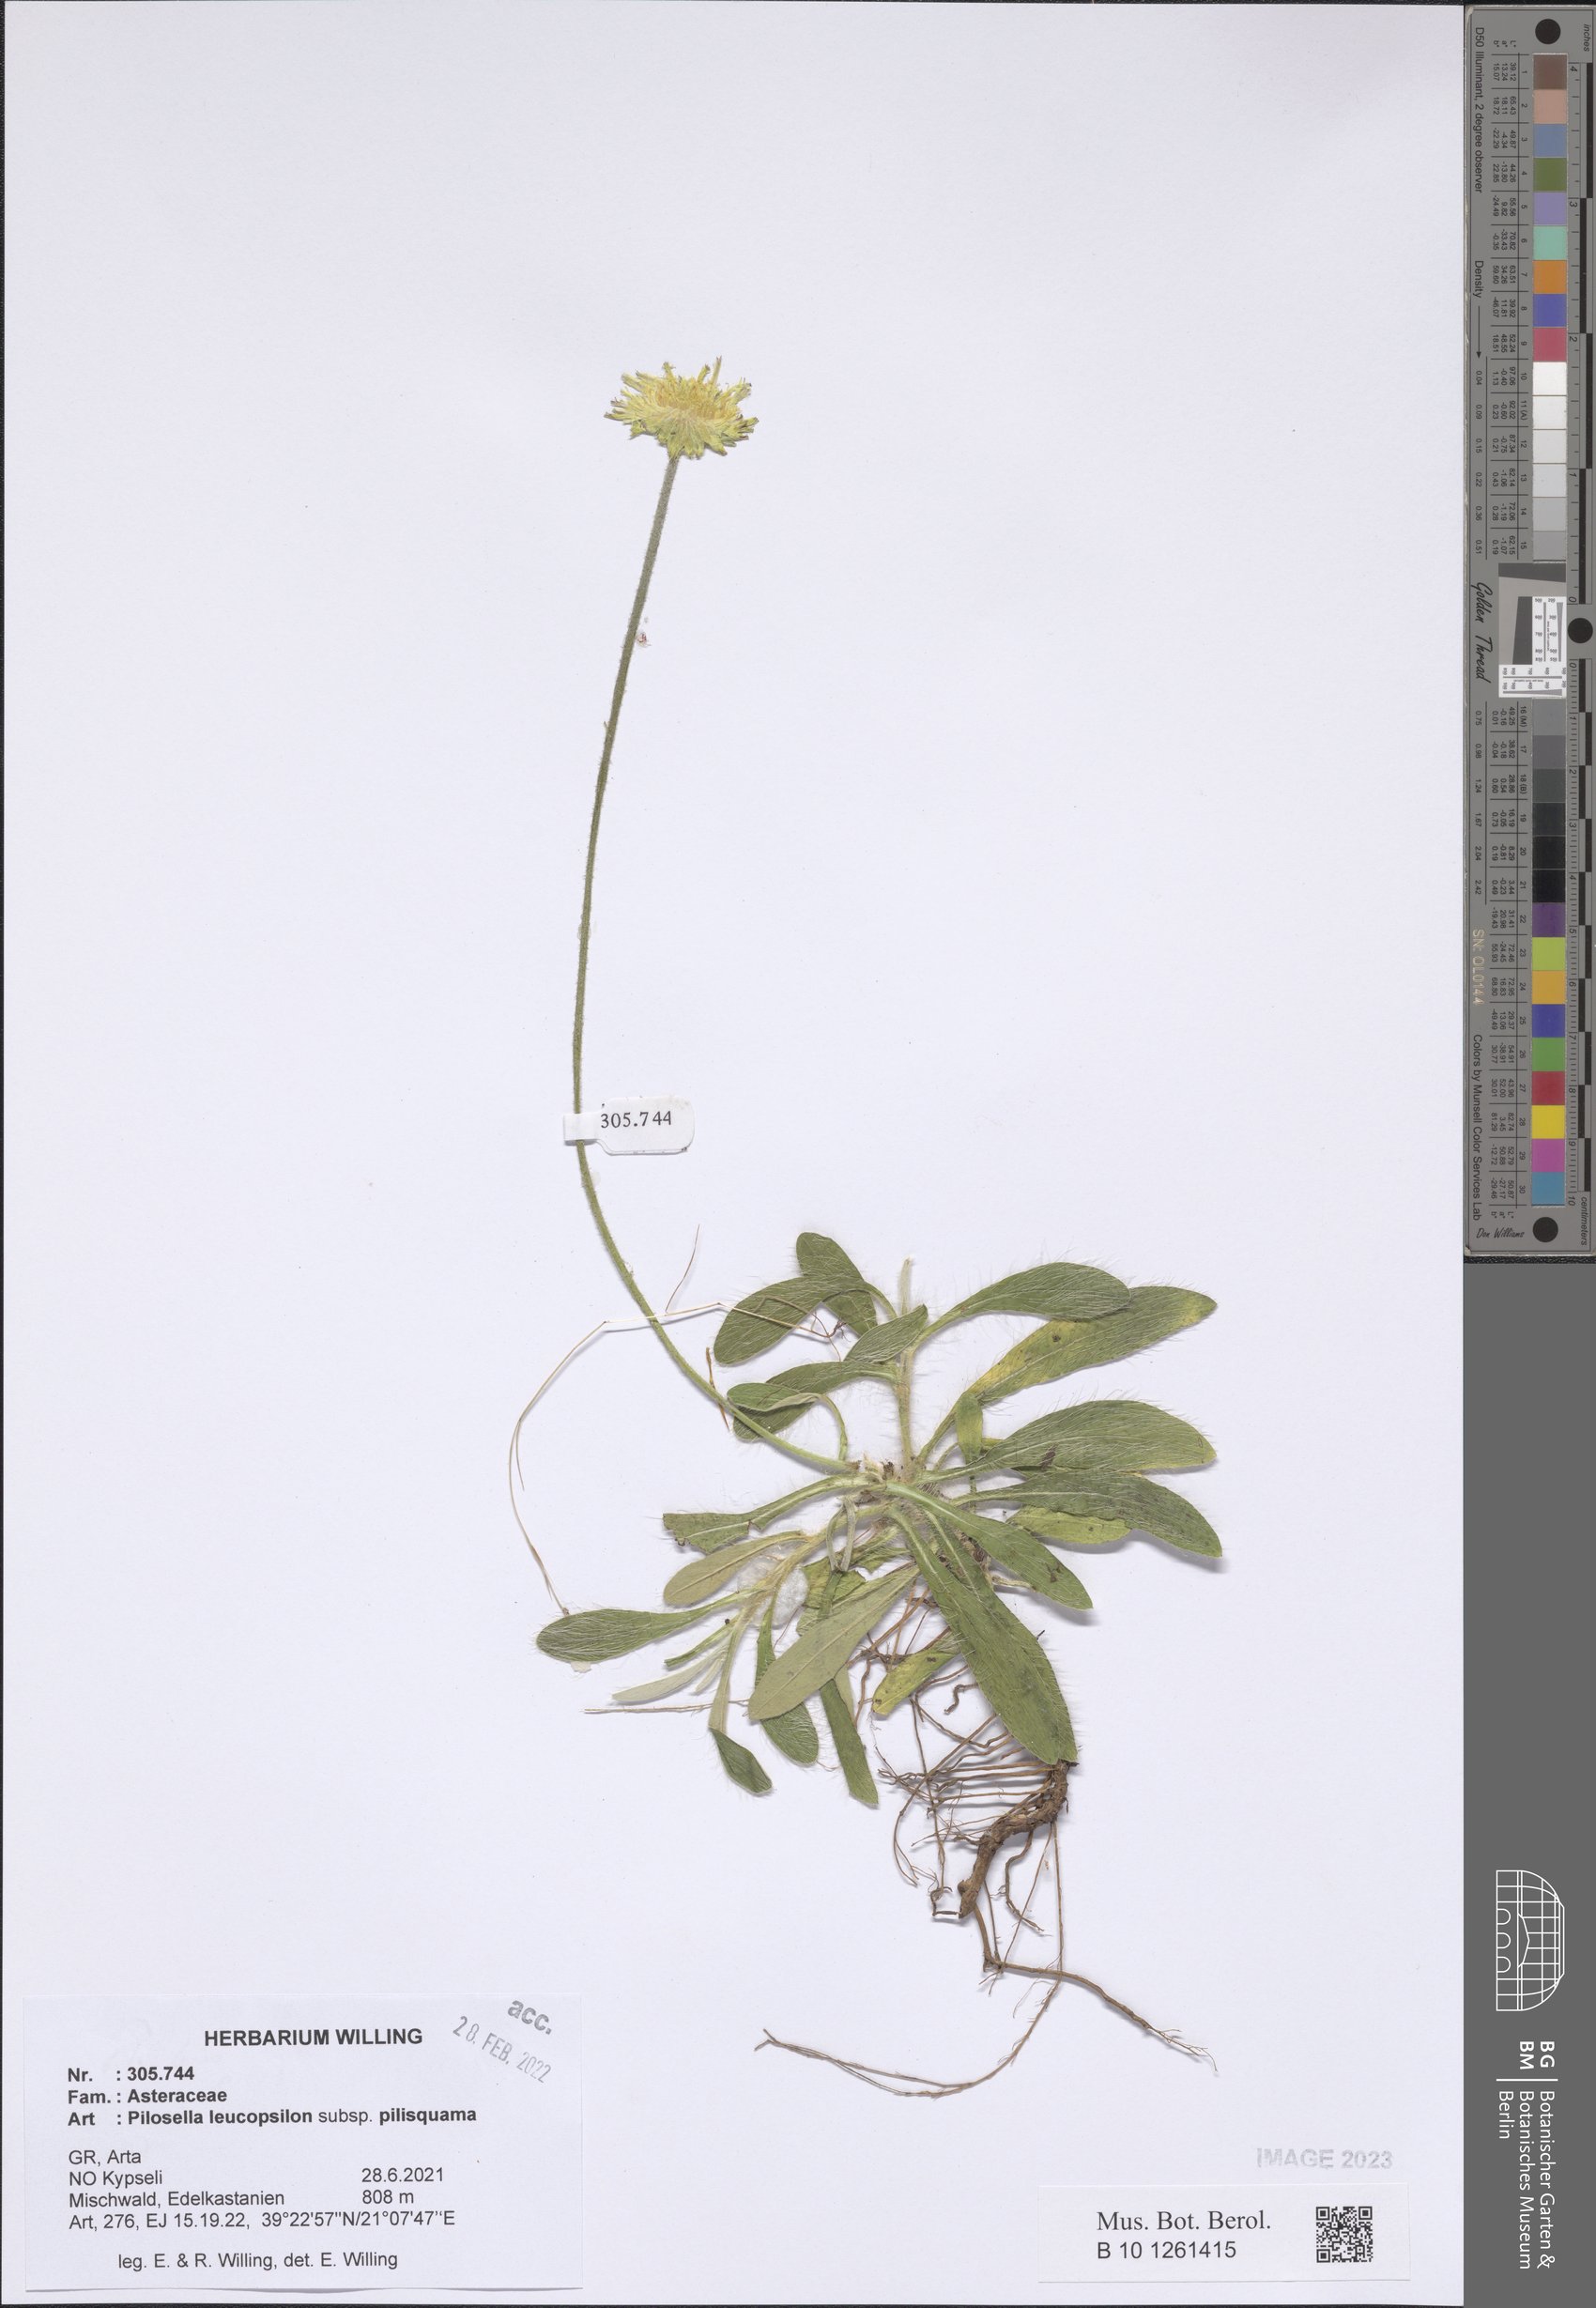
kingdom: Plantae
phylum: Tracheophyta
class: Magnoliopsida
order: Asterales
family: Asteraceae
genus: Pilosella
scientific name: Pilosella leucopsilon
